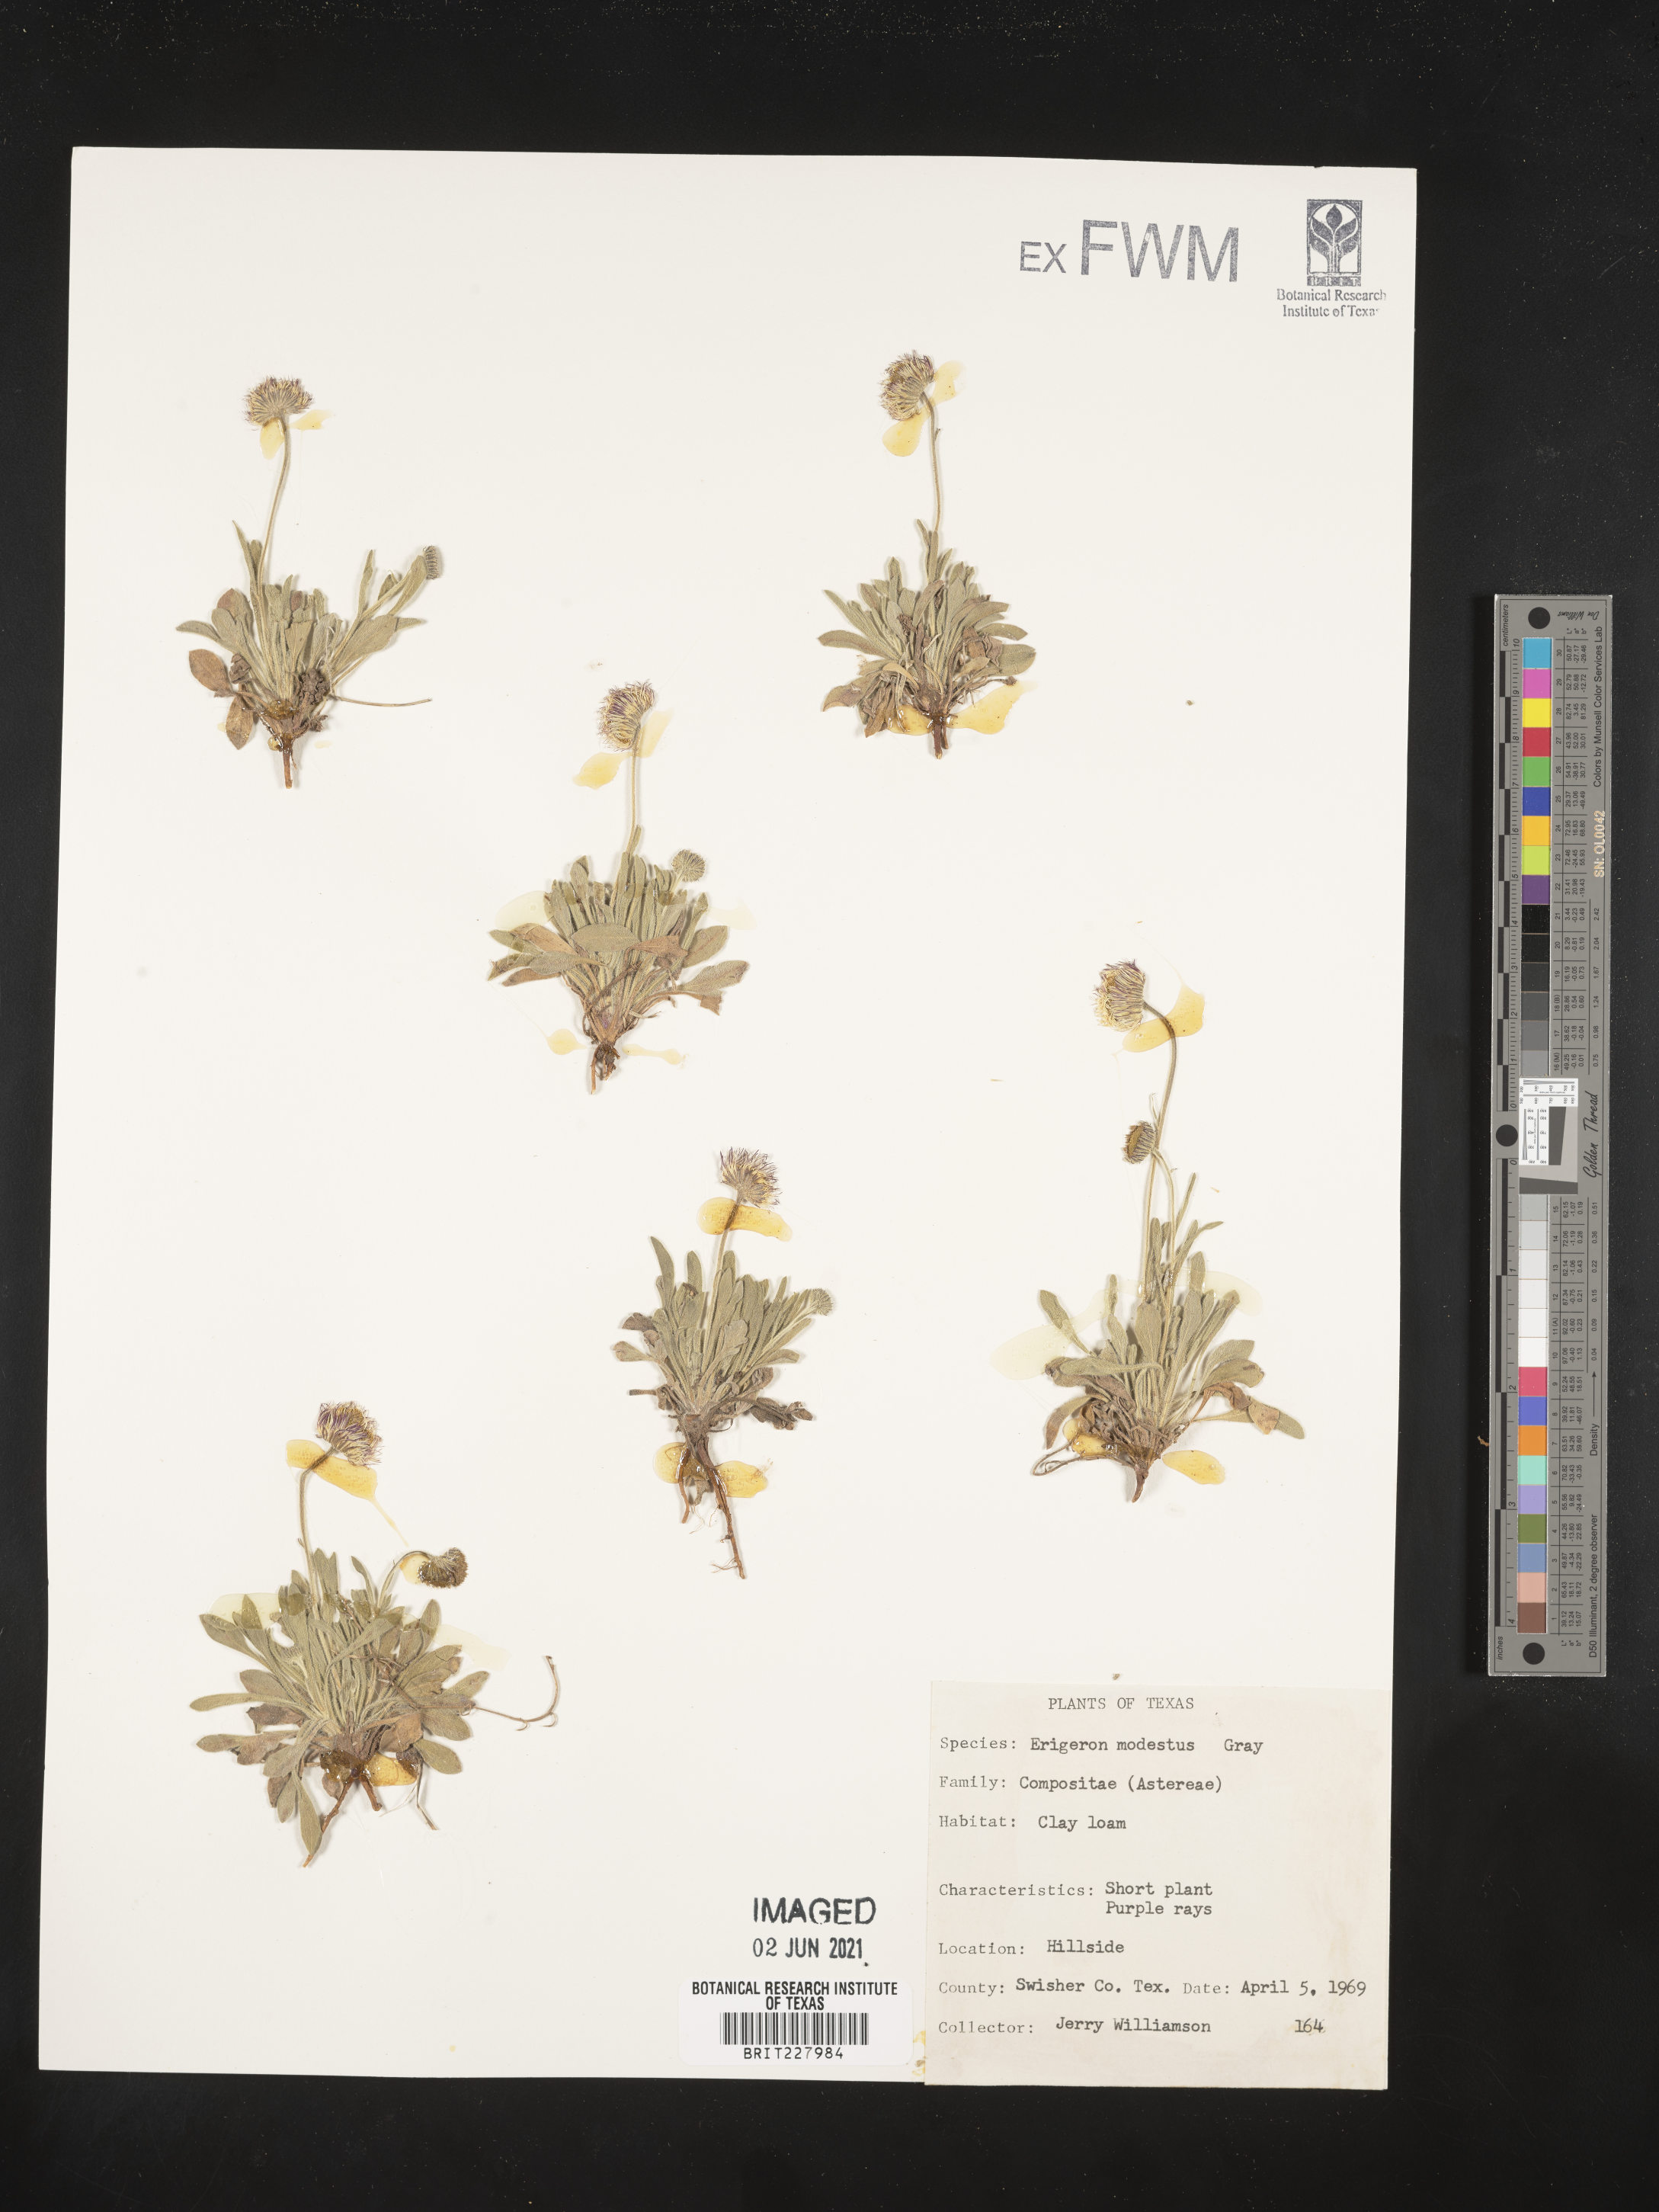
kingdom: Plantae
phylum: Tracheophyta
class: Magnoliopsida
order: Asterales
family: Asteraceae
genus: Erigeron
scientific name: Erigeron modestus
